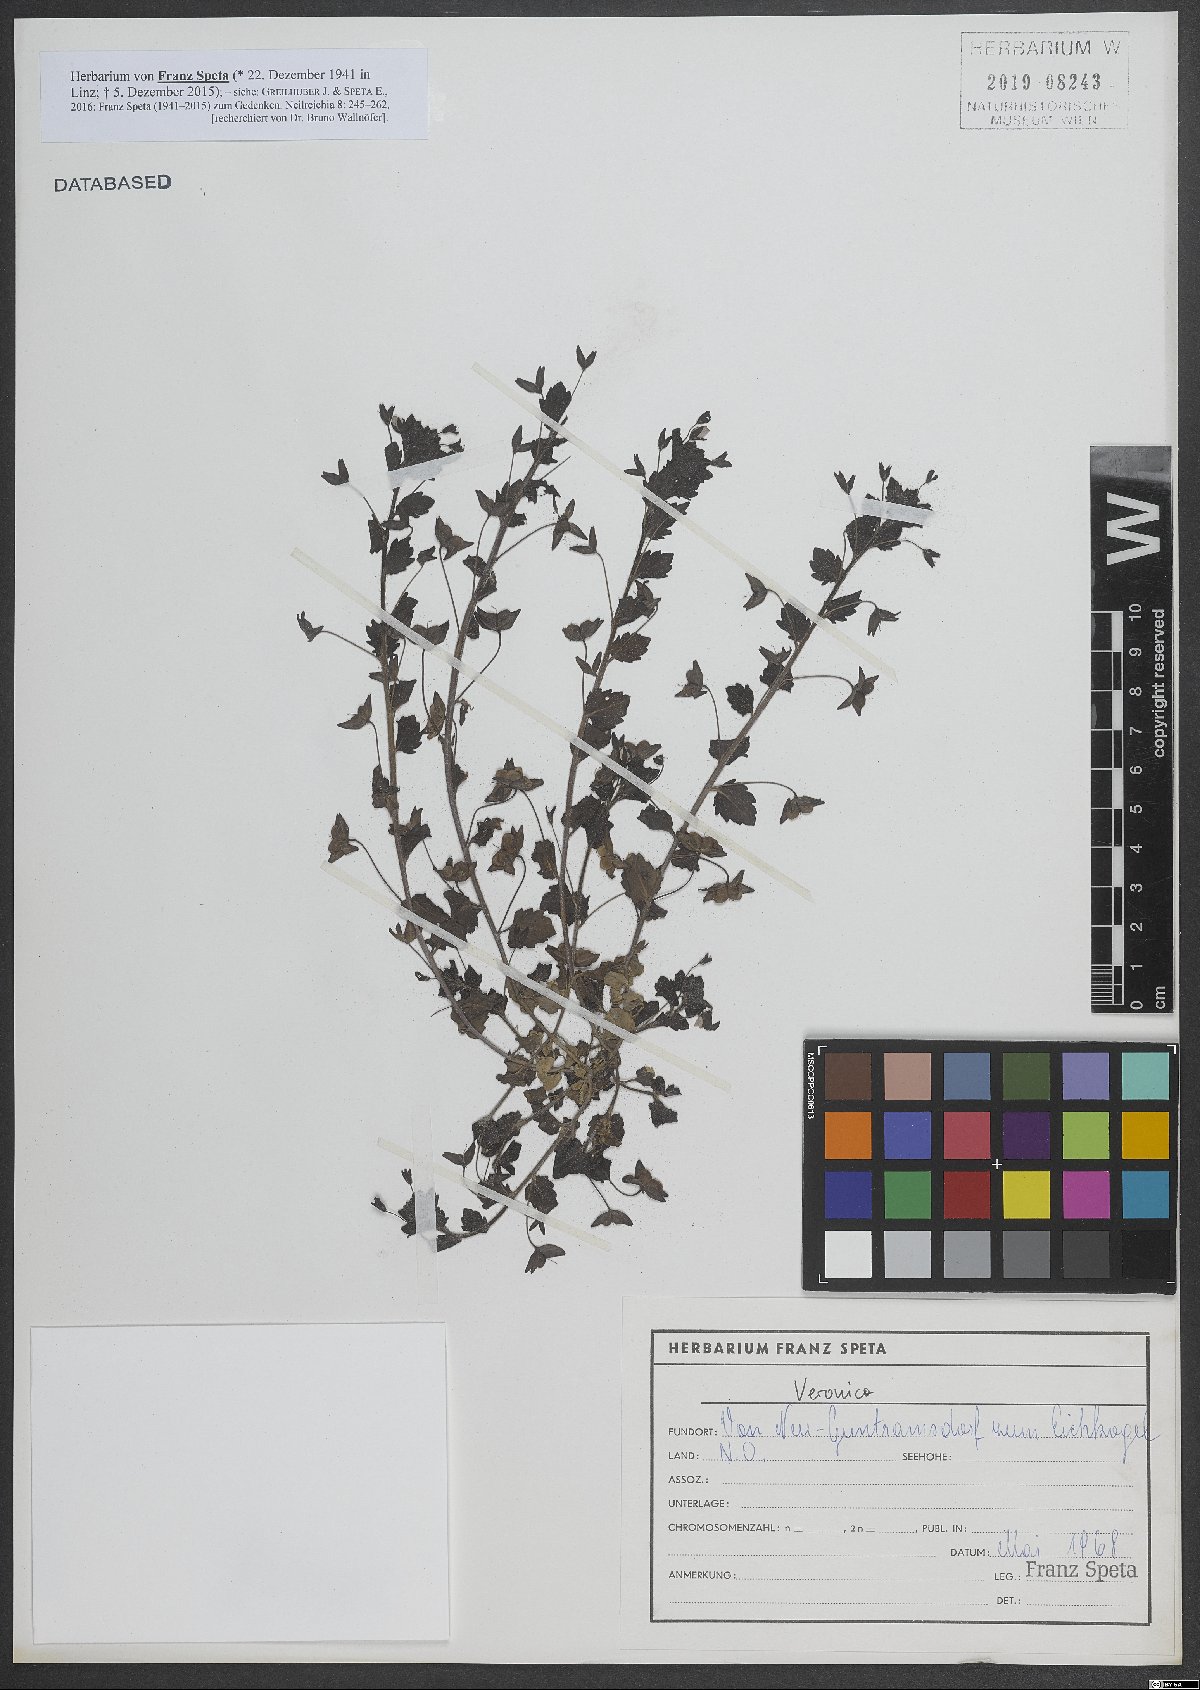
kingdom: Plantae
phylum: Tracheophyta
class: Magnoliopsida
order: Lamiales
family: Plantaginaceae
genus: Veronica
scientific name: Veronica
